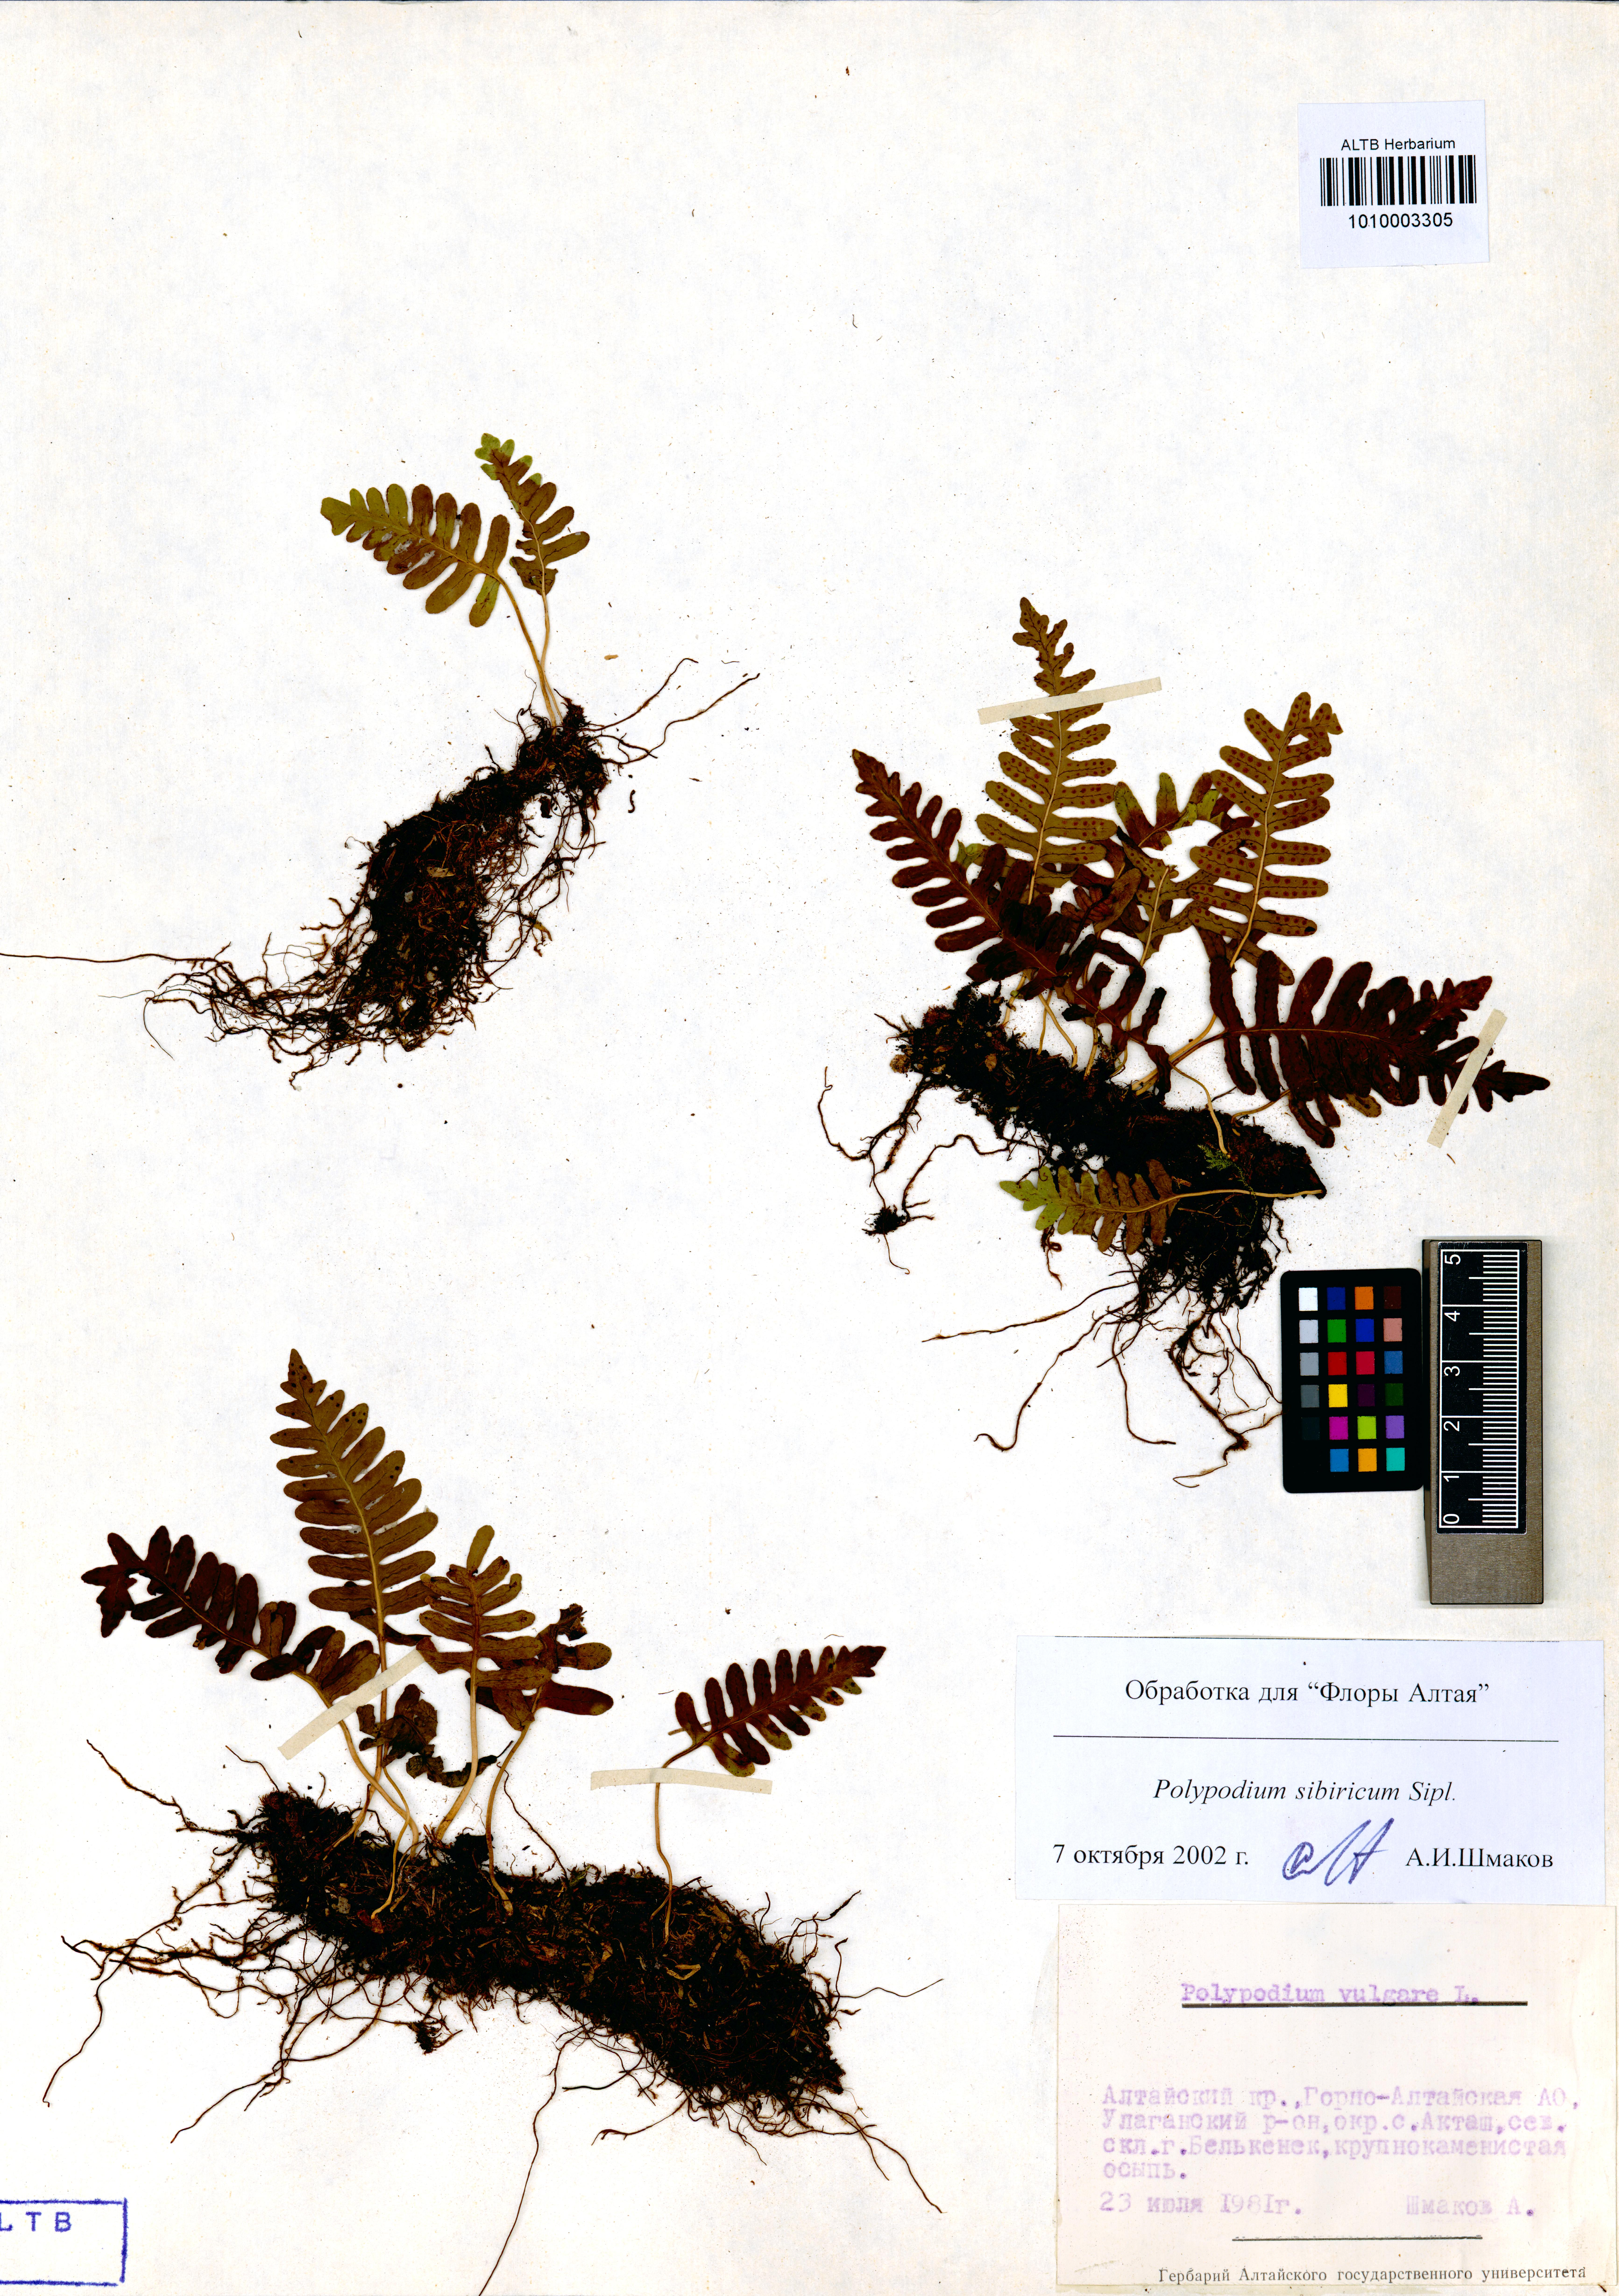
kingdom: Plantae
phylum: Tracheophyta
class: Polypodiopsida
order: Polypodiales
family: Polypodiaceae
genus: Polypodium
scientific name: Polypodium sibiricum
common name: Siberian polypody
